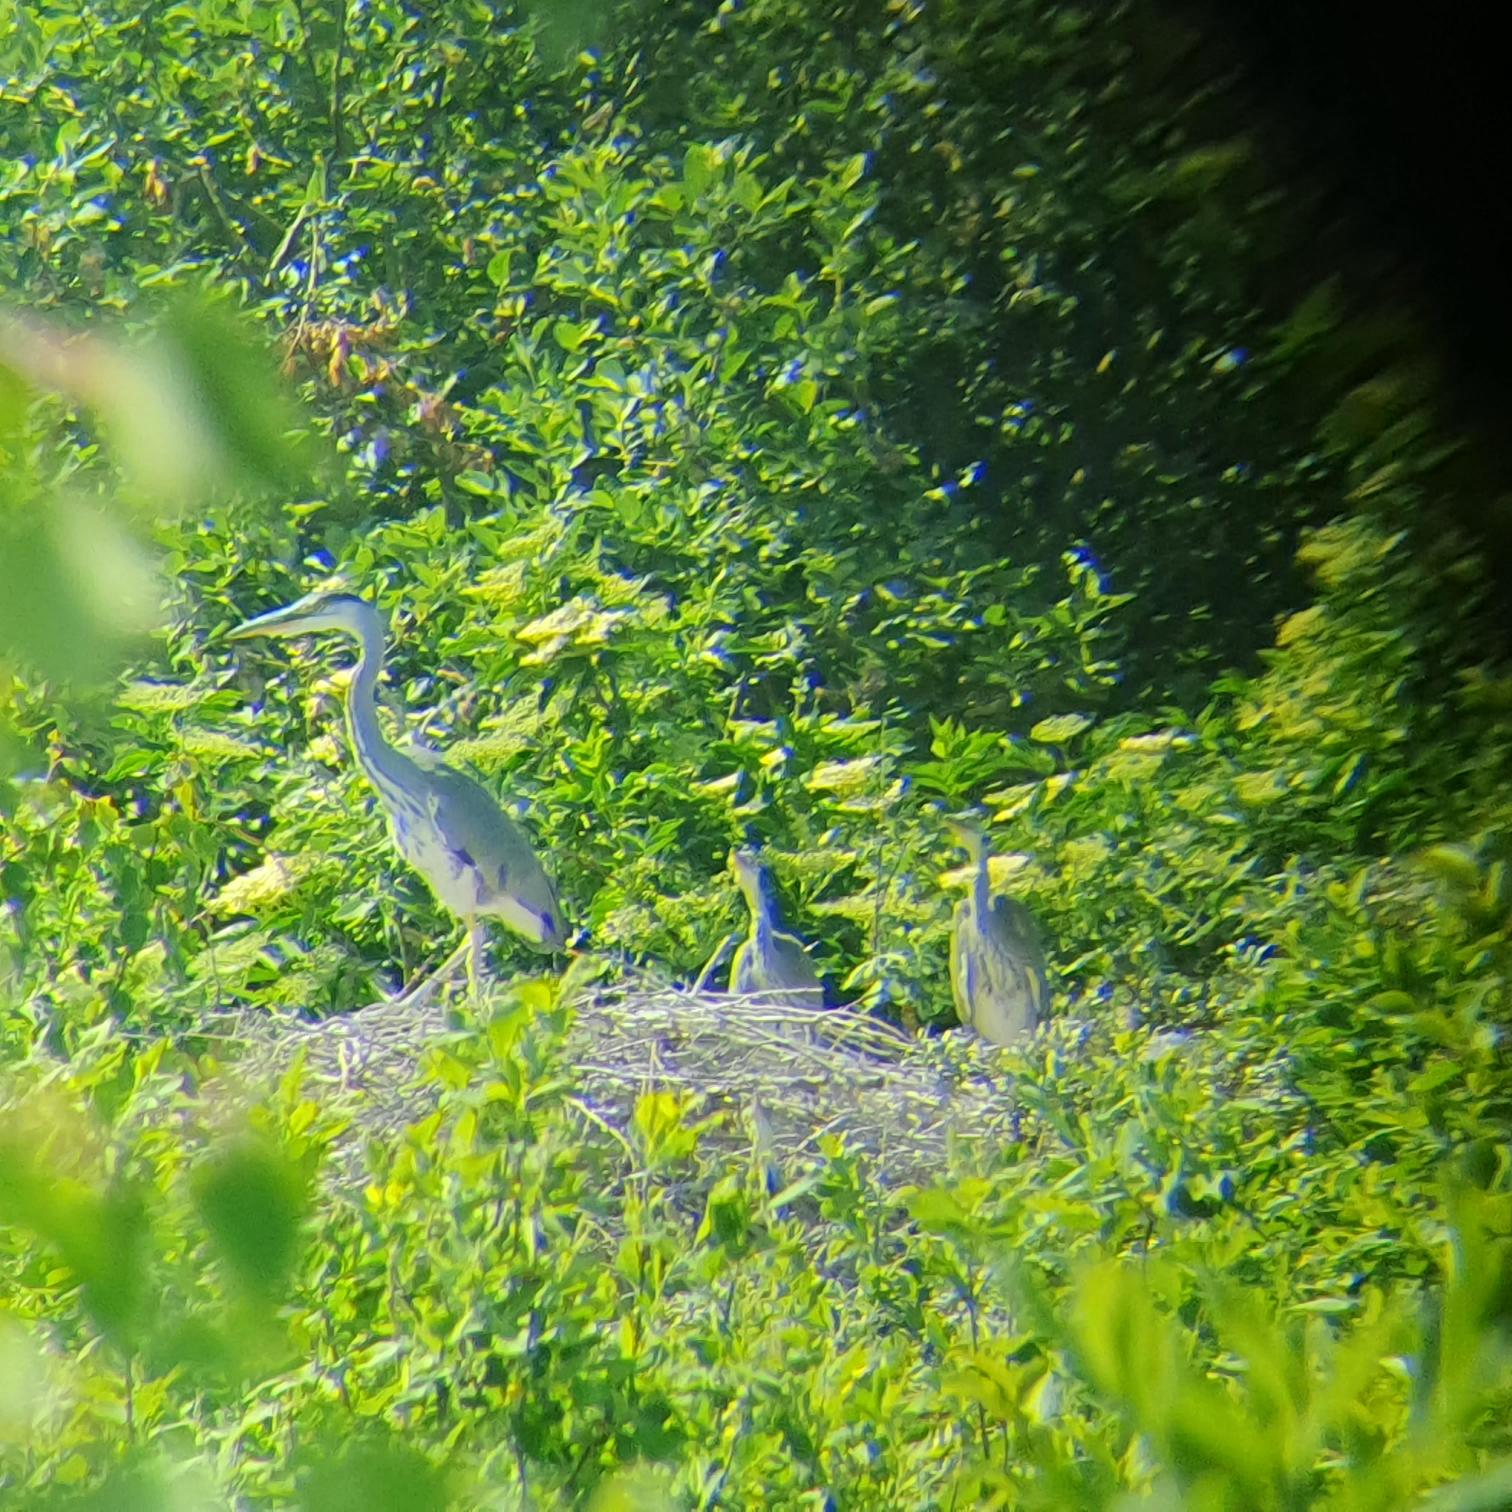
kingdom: Animalia
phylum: Chordata
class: Aves
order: Pelecaniformes
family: Ardeidae
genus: Ardea
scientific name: Ardea cinerea
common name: Fiskehejre
